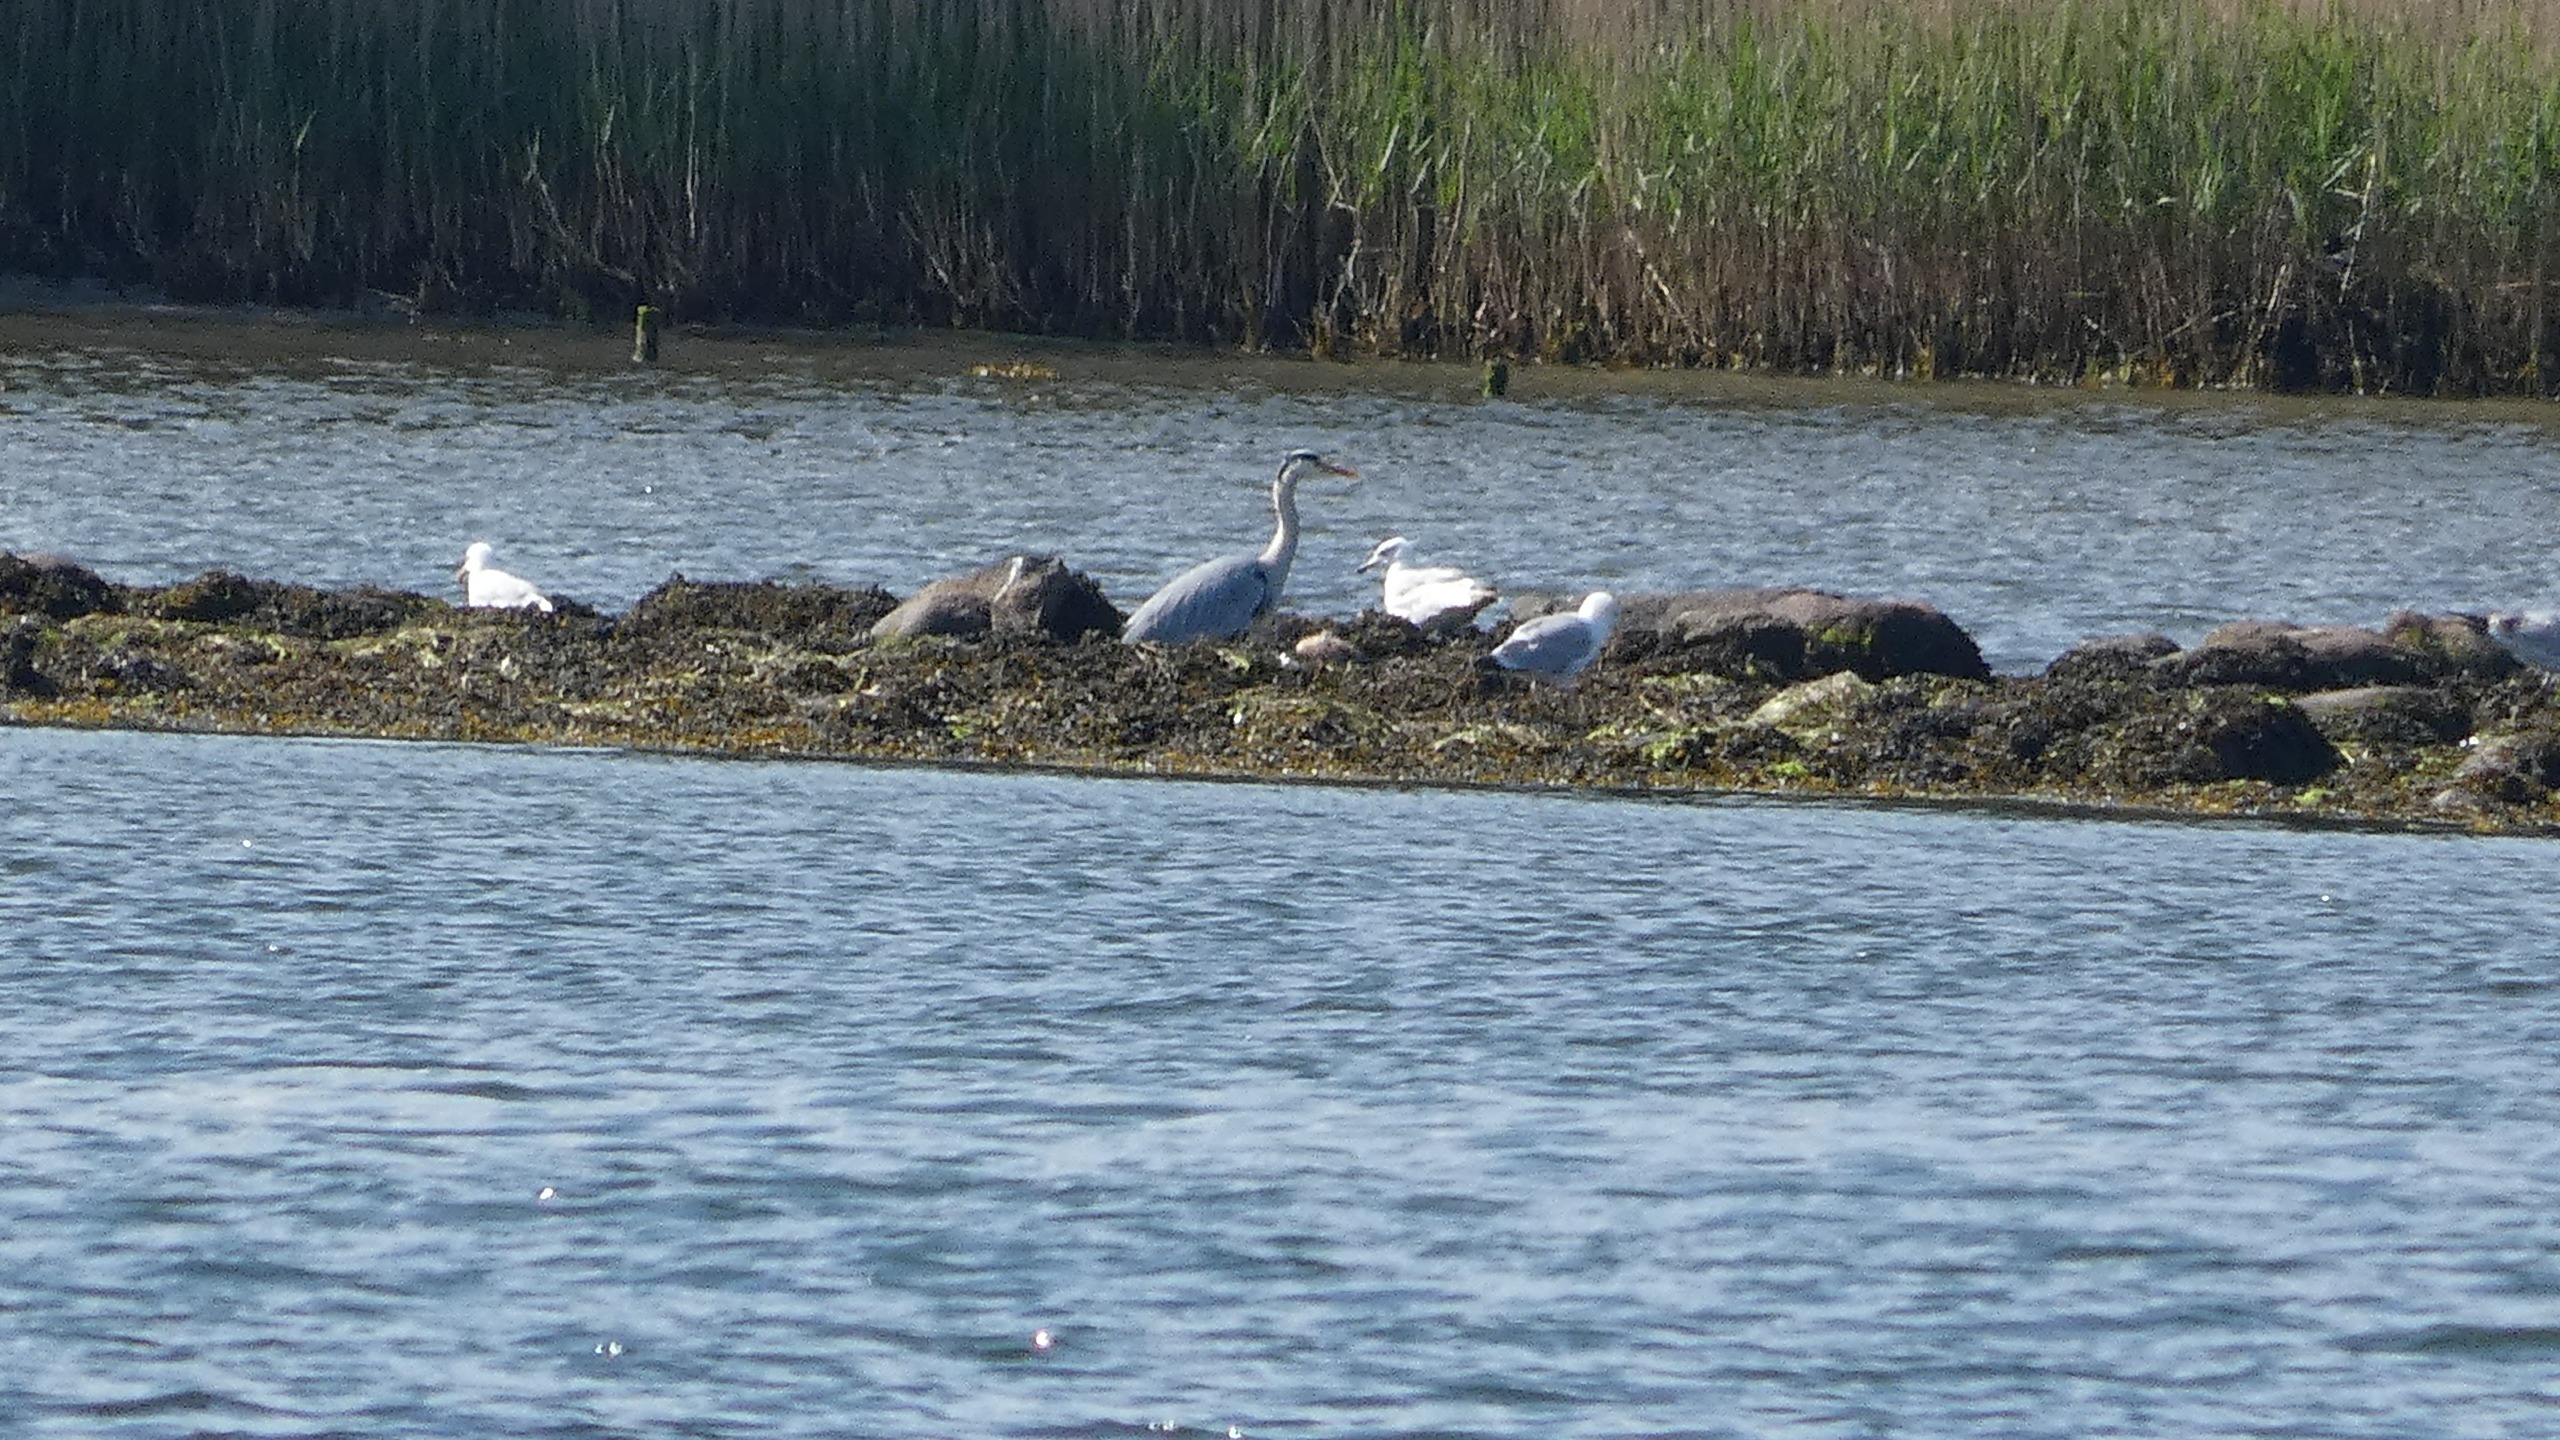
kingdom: Animalia
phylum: Chordata
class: Aves
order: Pelecaniformes
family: Ardeidae
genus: Ardea
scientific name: Ardea cinerea
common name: Fiskehejre
